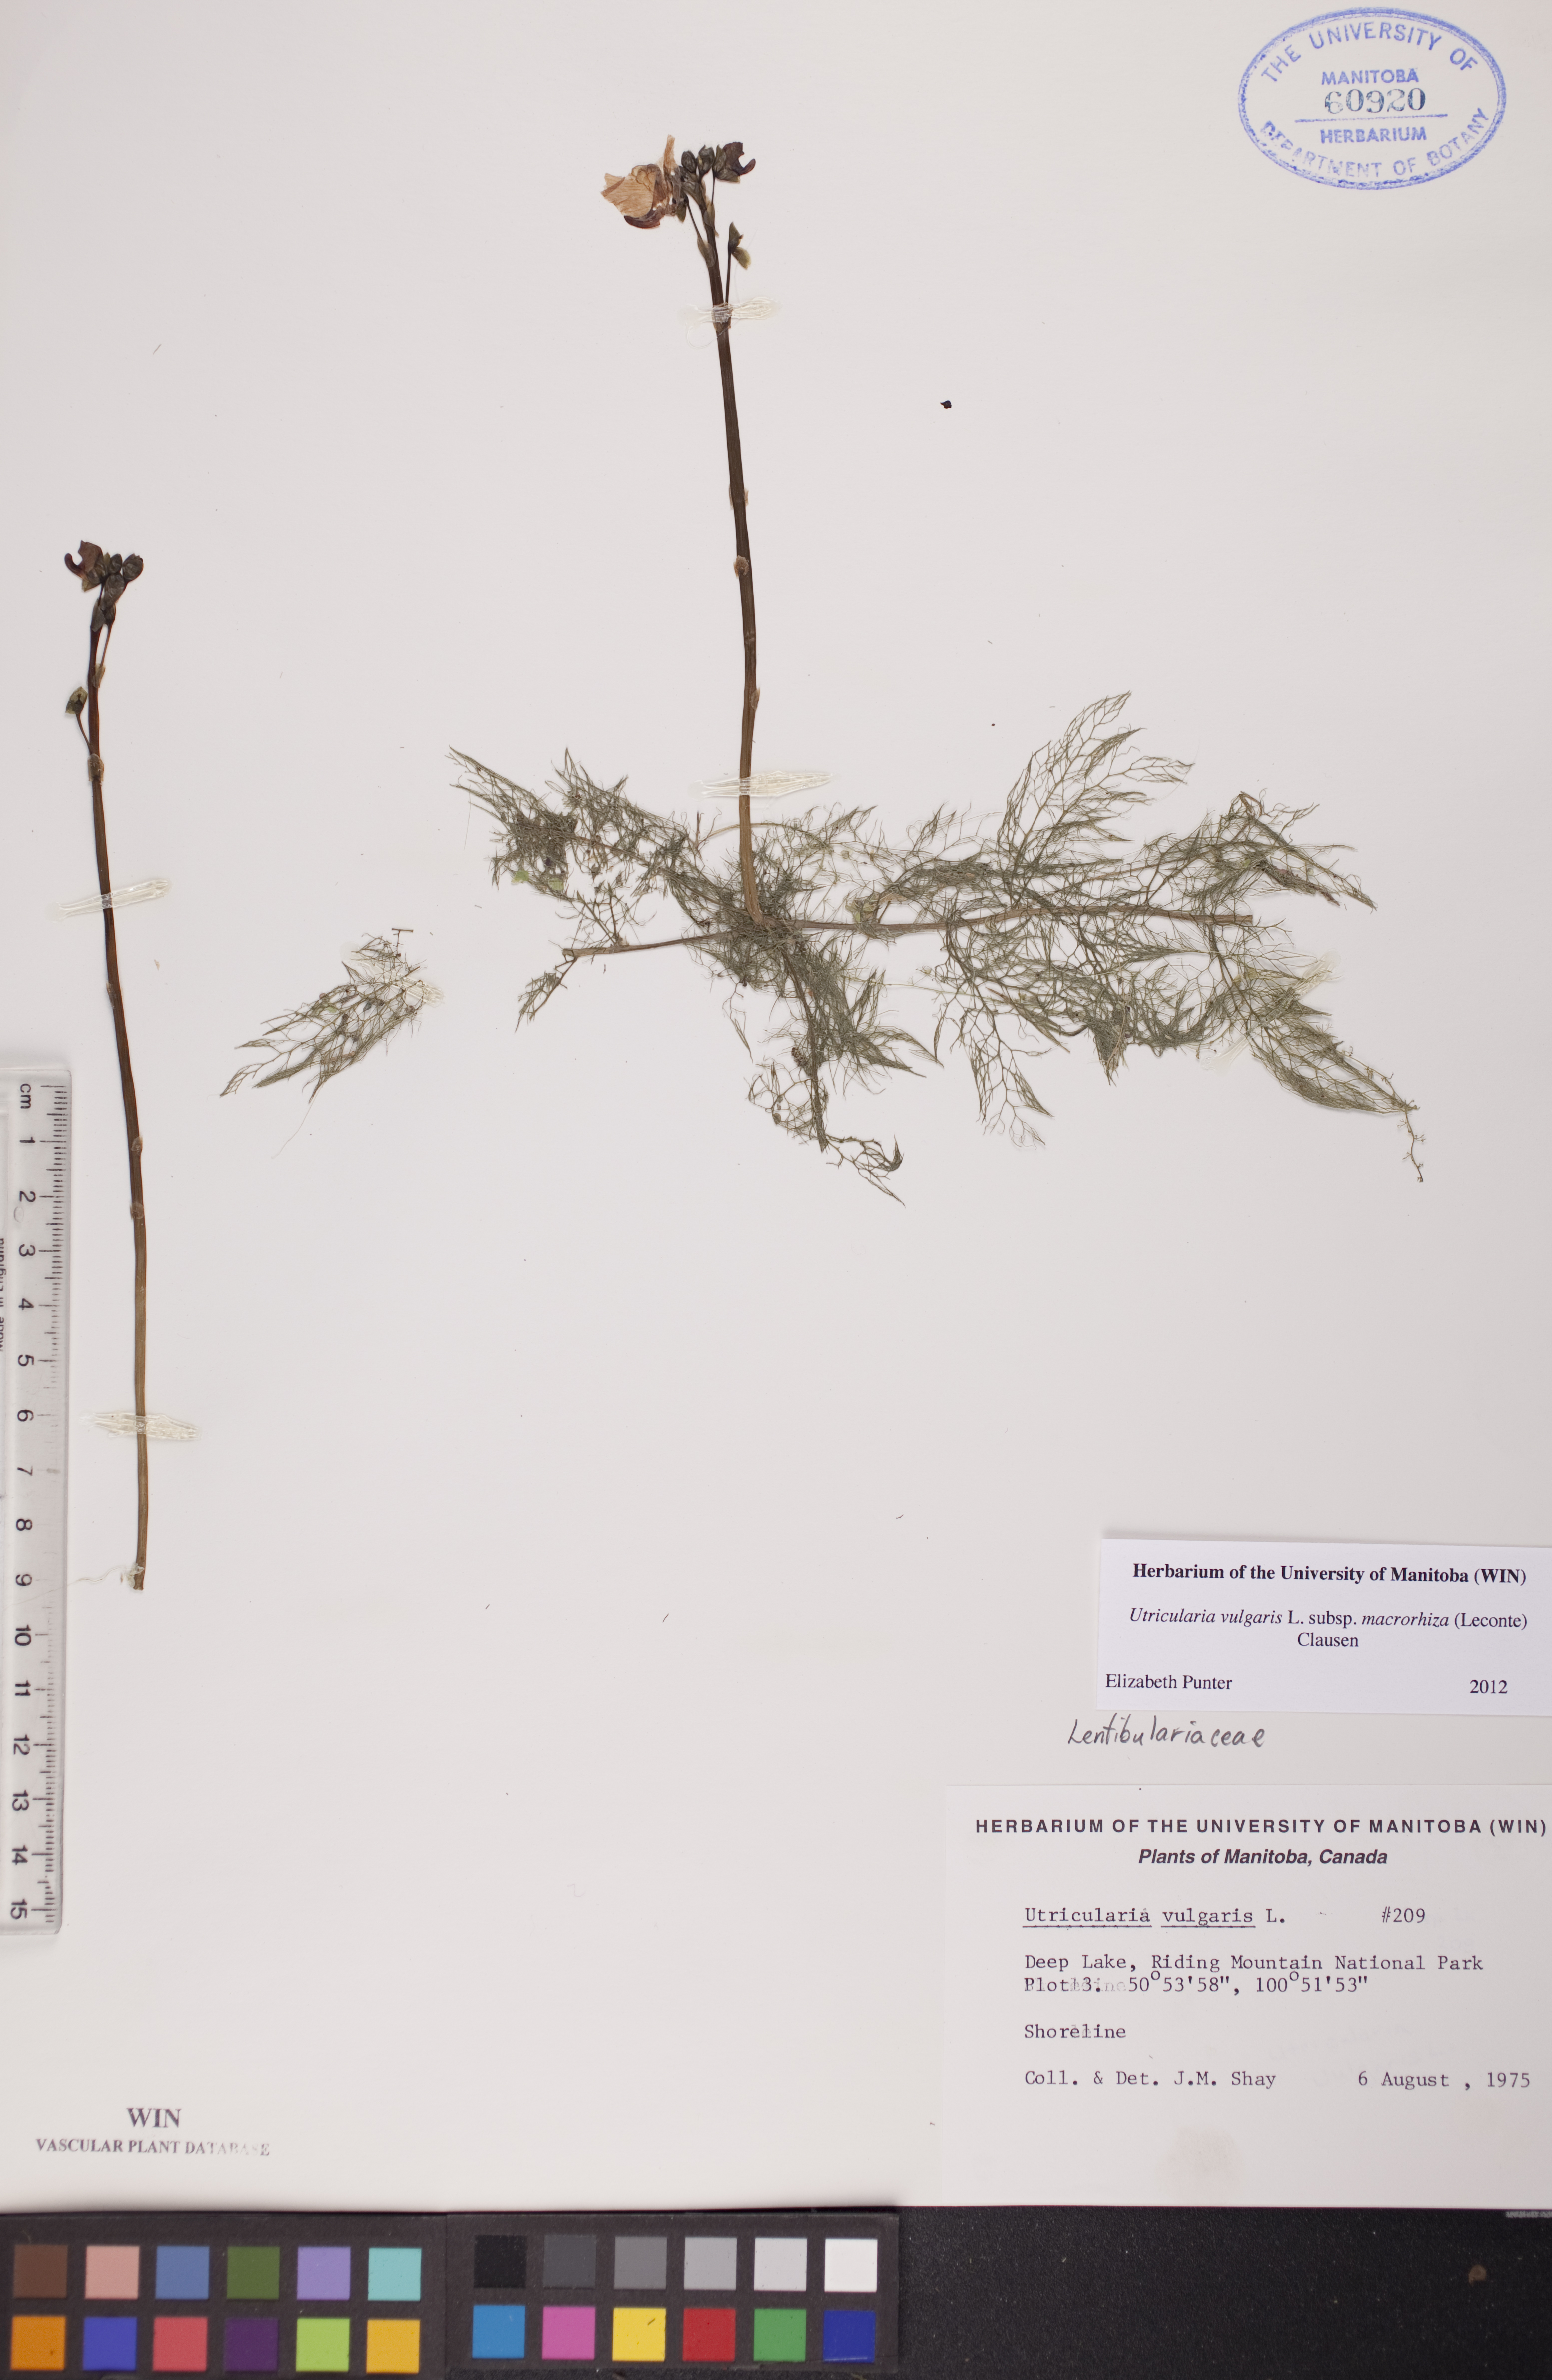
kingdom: Plantae
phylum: Tracheophyta
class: Magnoliopsida
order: Lamiales
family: Lentibulariaceae
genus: Utricularia
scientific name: Utricularia macrorhiza
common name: Common bladderwort
